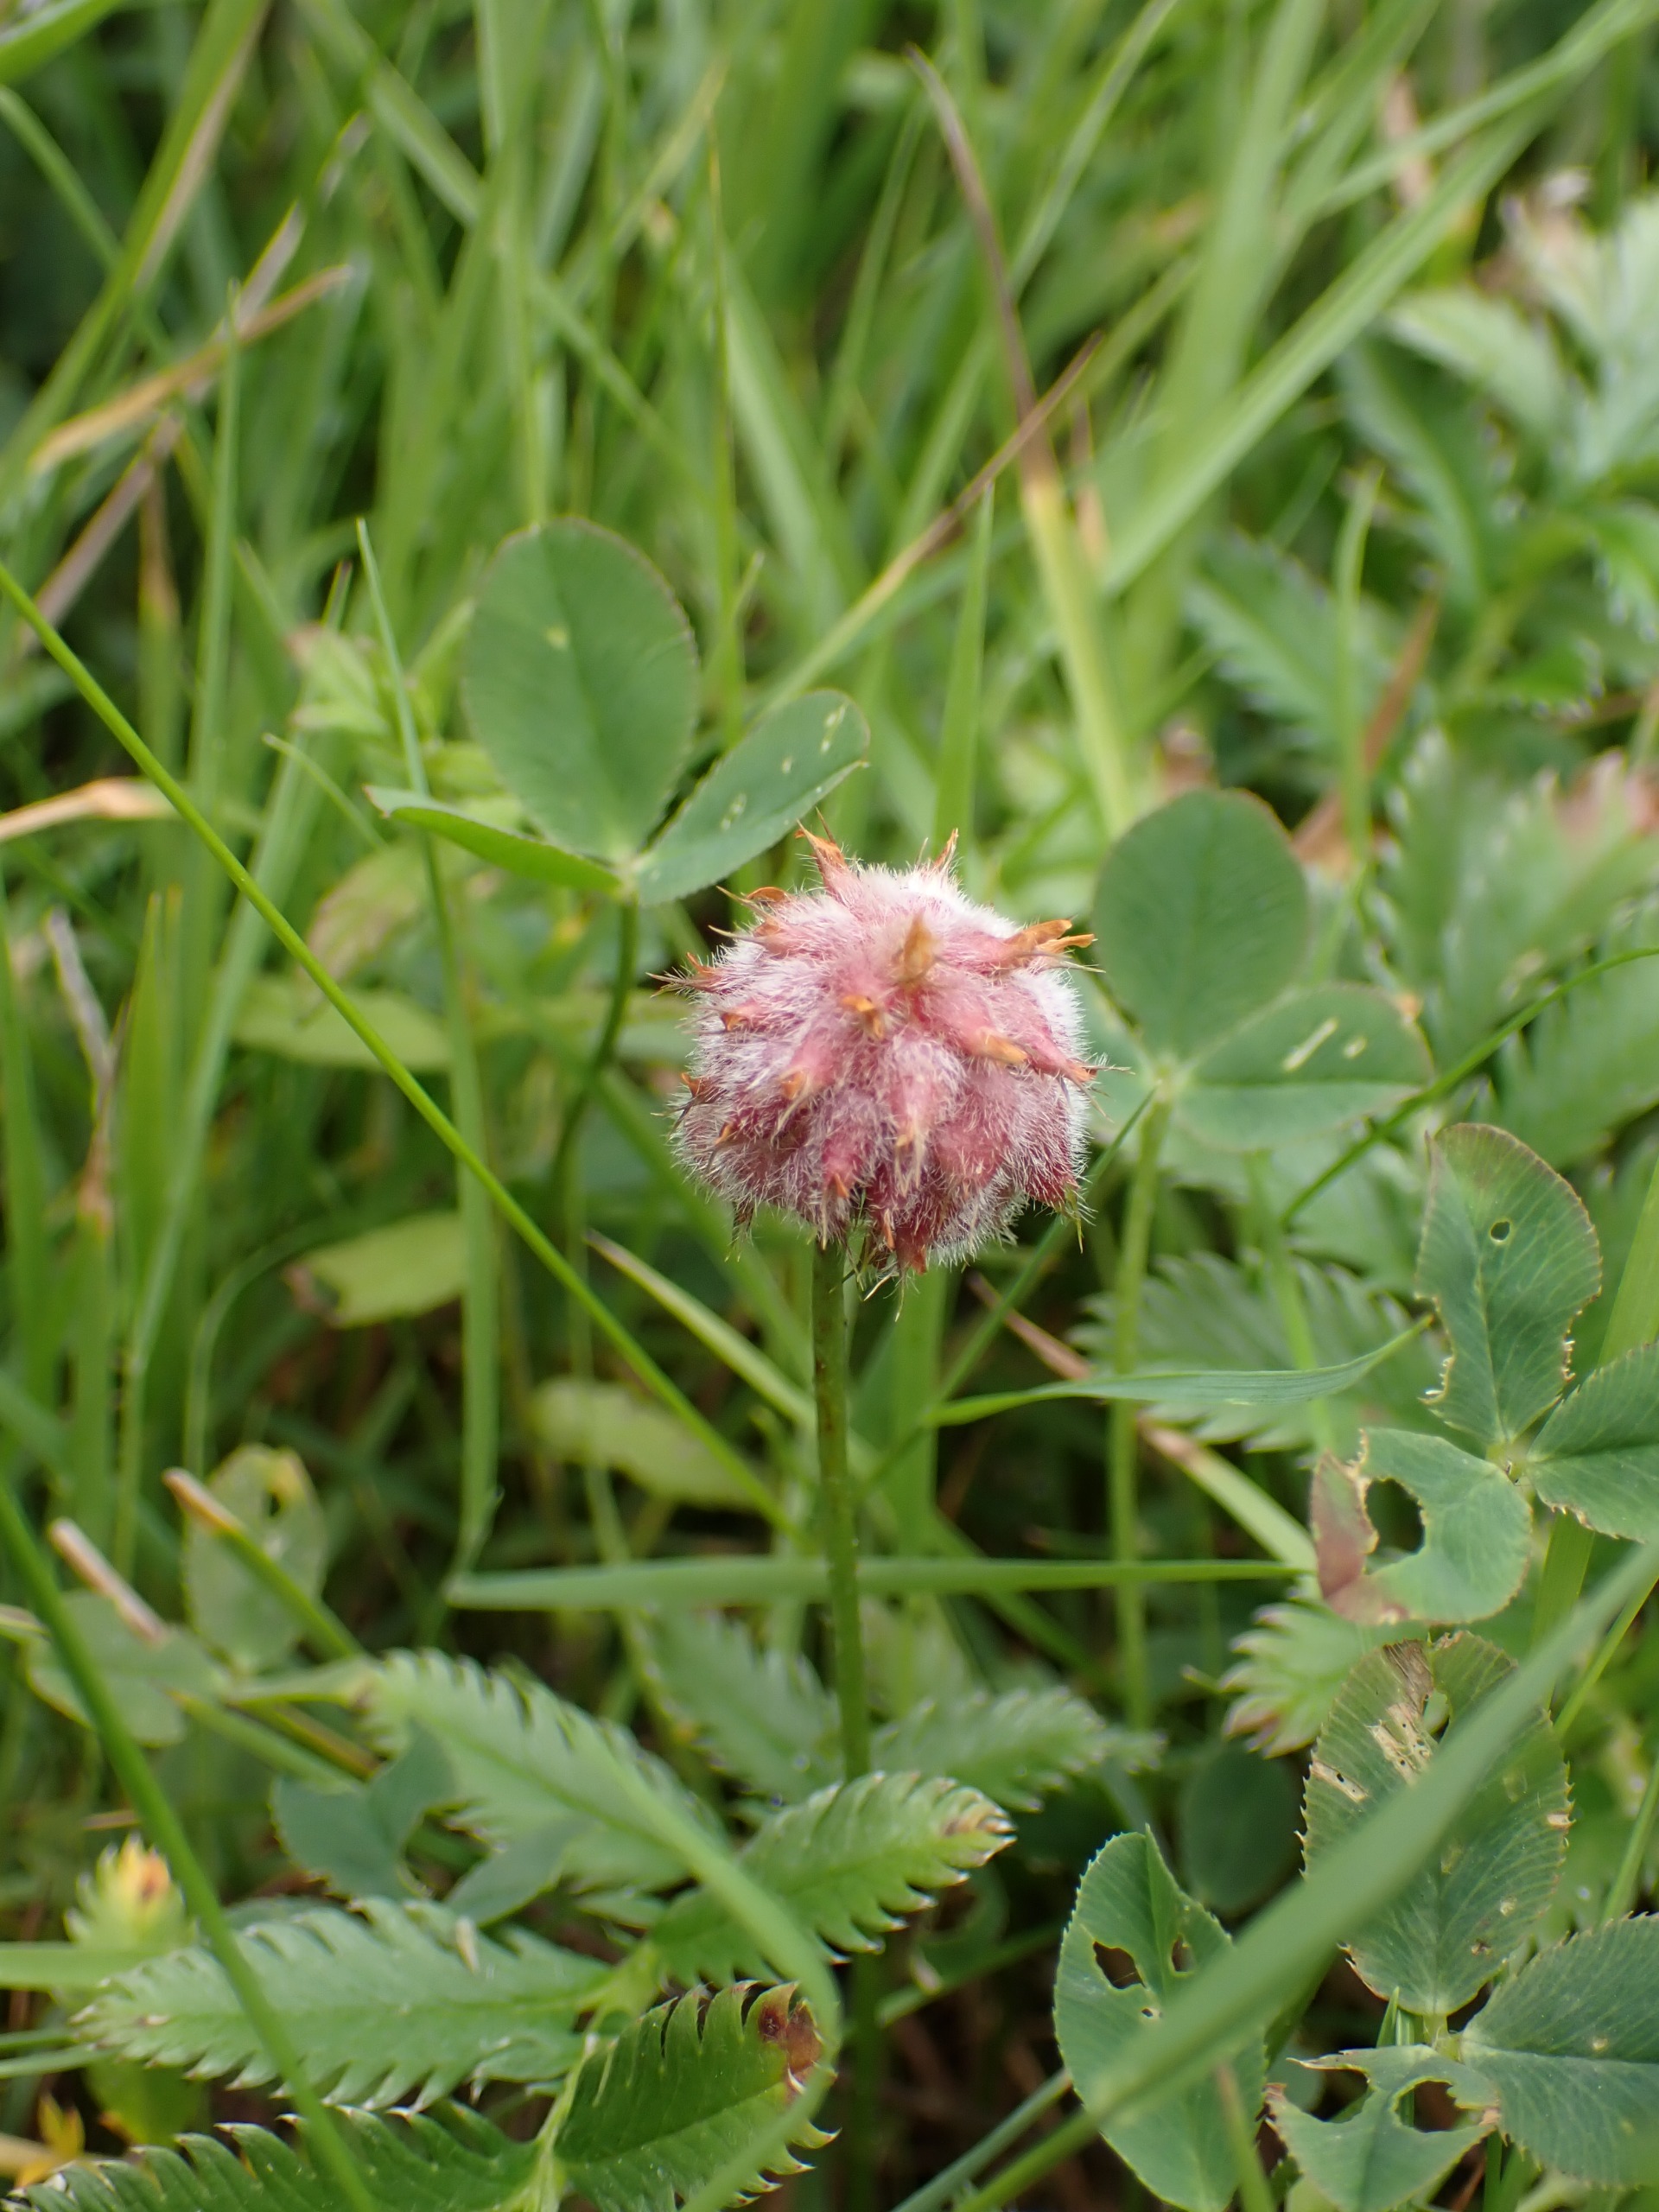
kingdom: Plantae
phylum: Tracheophyta
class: Magnoliopsida
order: Fabales
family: Fabaceae
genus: Trifolium
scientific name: Trifolium fragiferum
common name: Jordbær-kløver
